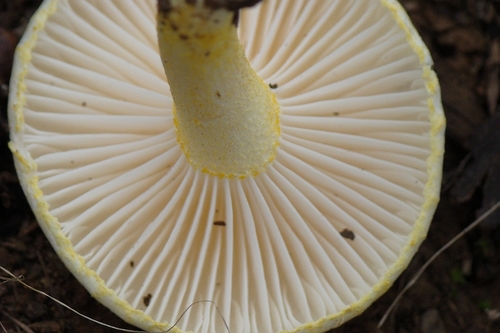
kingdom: Fungi
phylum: Basidiomycota
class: Agaricomycetes
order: Agaricales
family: Hygrophoraceae
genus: Hygrophorus
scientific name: Hygrophorus chrysodon
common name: Gold flecked woodwax
